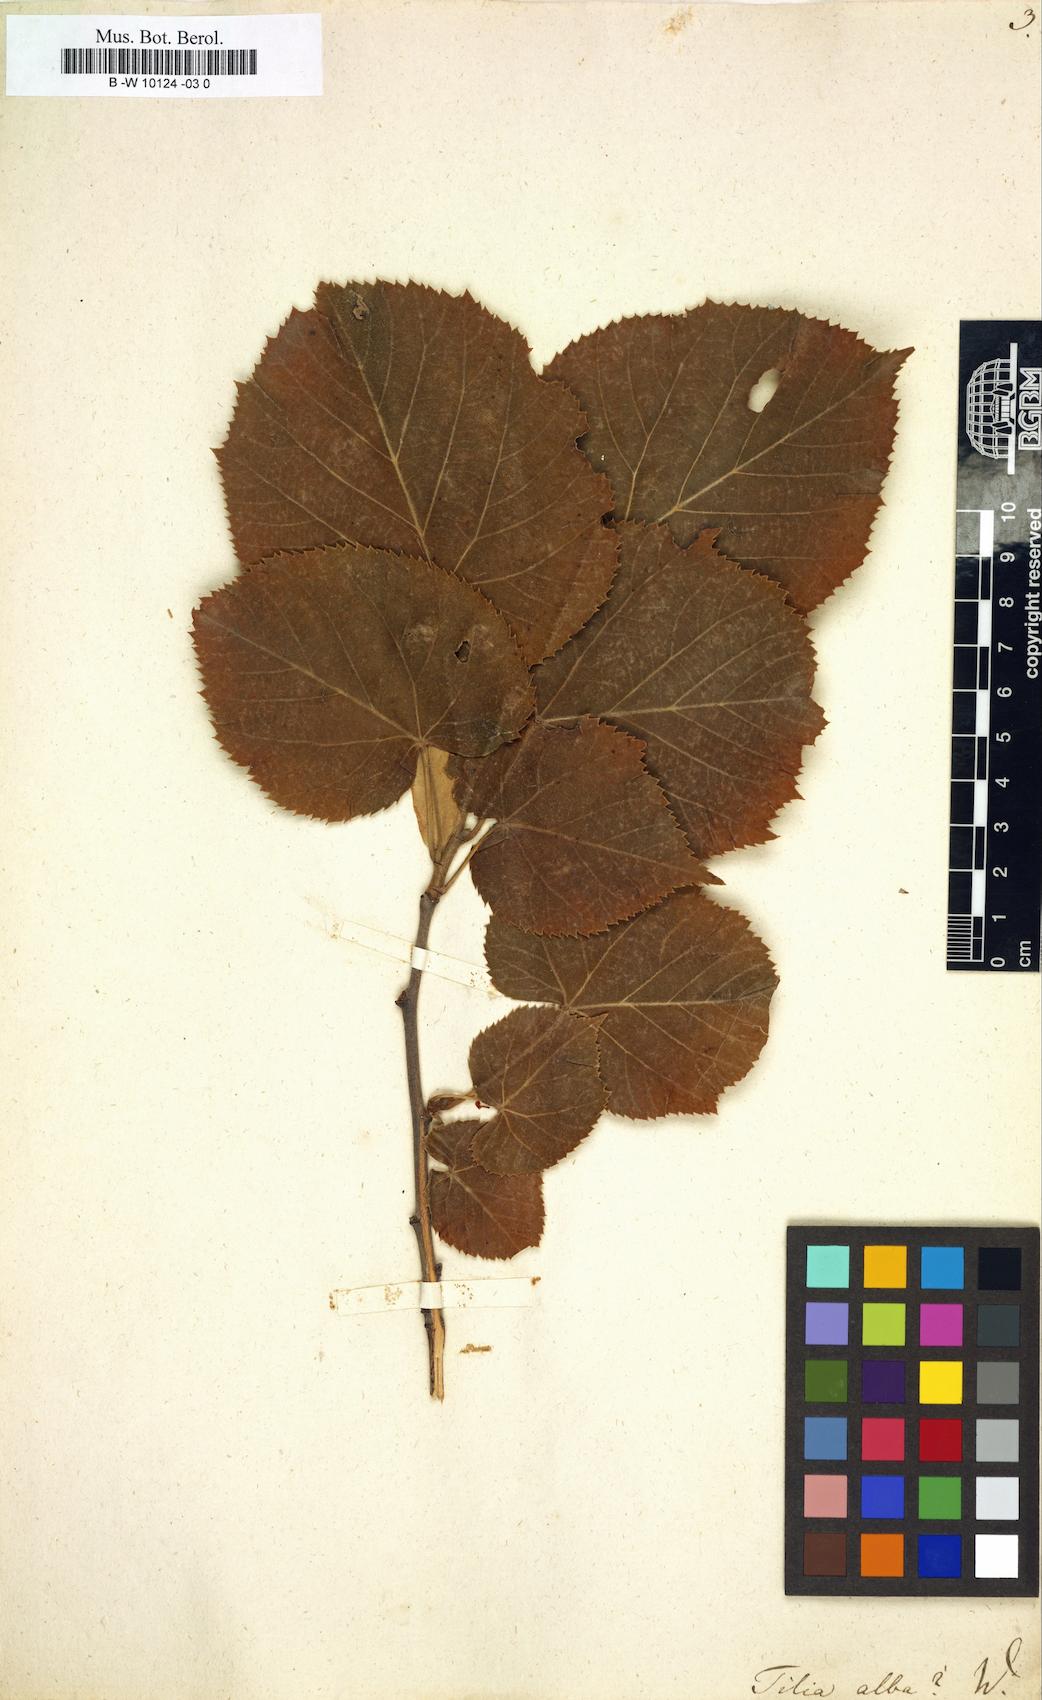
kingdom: Plantae
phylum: Tracheophyta
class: Magnoliopsida
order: Malvales
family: Malvaceae
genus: Tilia
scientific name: Tilia tomentosa
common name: Silver lime
